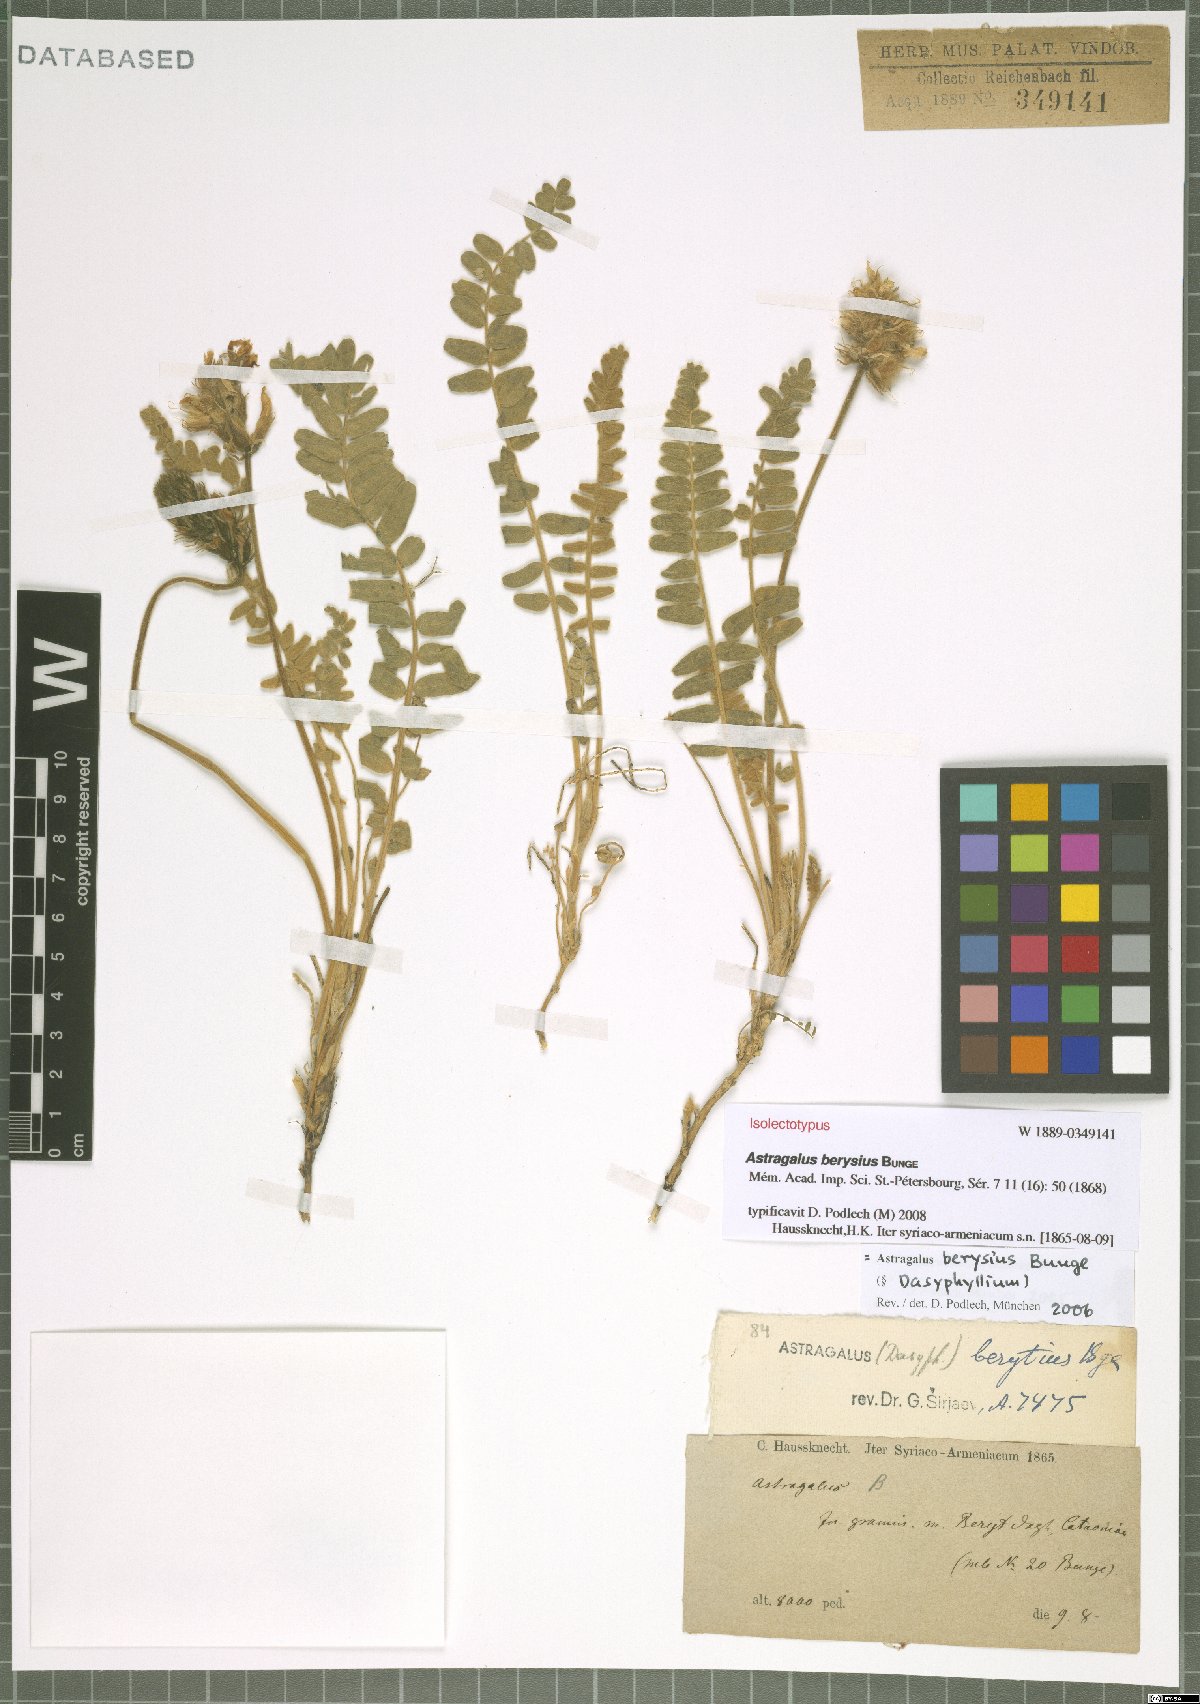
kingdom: Plantae
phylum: Tracheophyta
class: Magnoliopsida
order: Fabales
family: Fabaceae
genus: Astragalus
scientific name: Astragalus berysius
